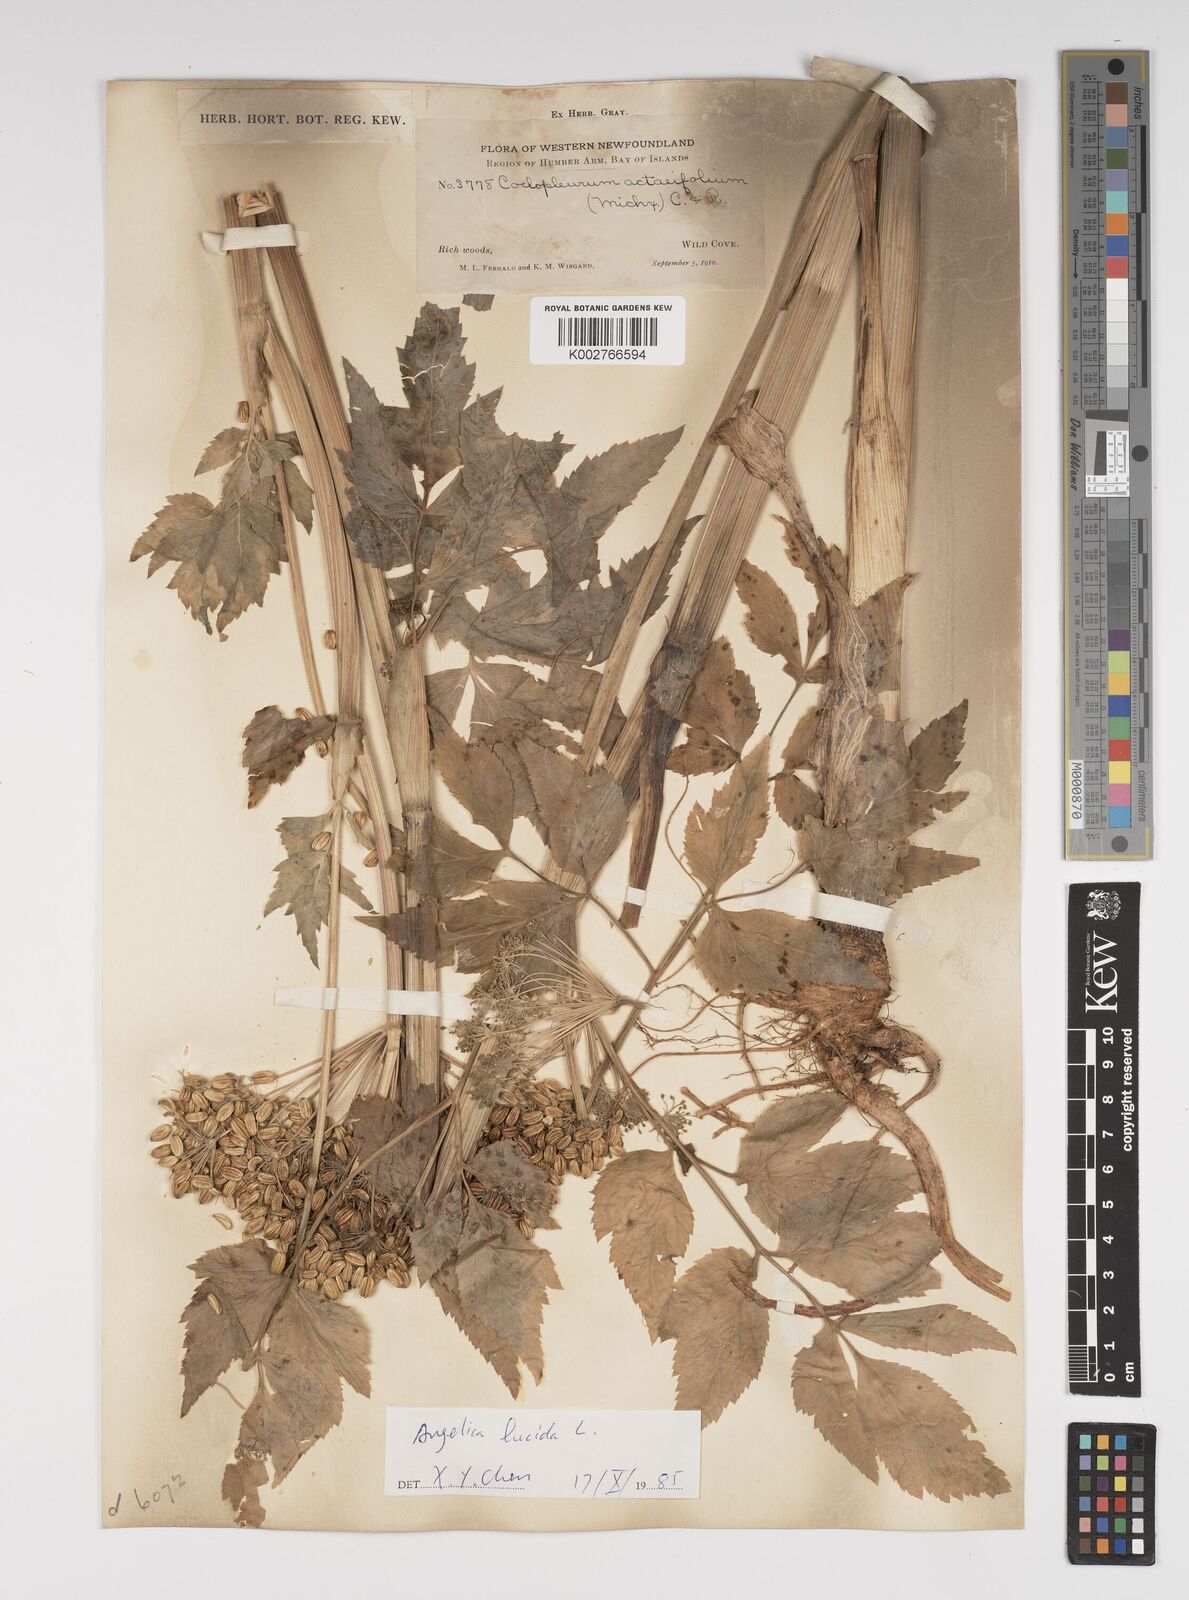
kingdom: Plantae
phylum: Tracheophyta
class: Magnoliopsida
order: Apiales
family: Apiaceae
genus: Angelica
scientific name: Angelica lucida
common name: Seabeach angelica
